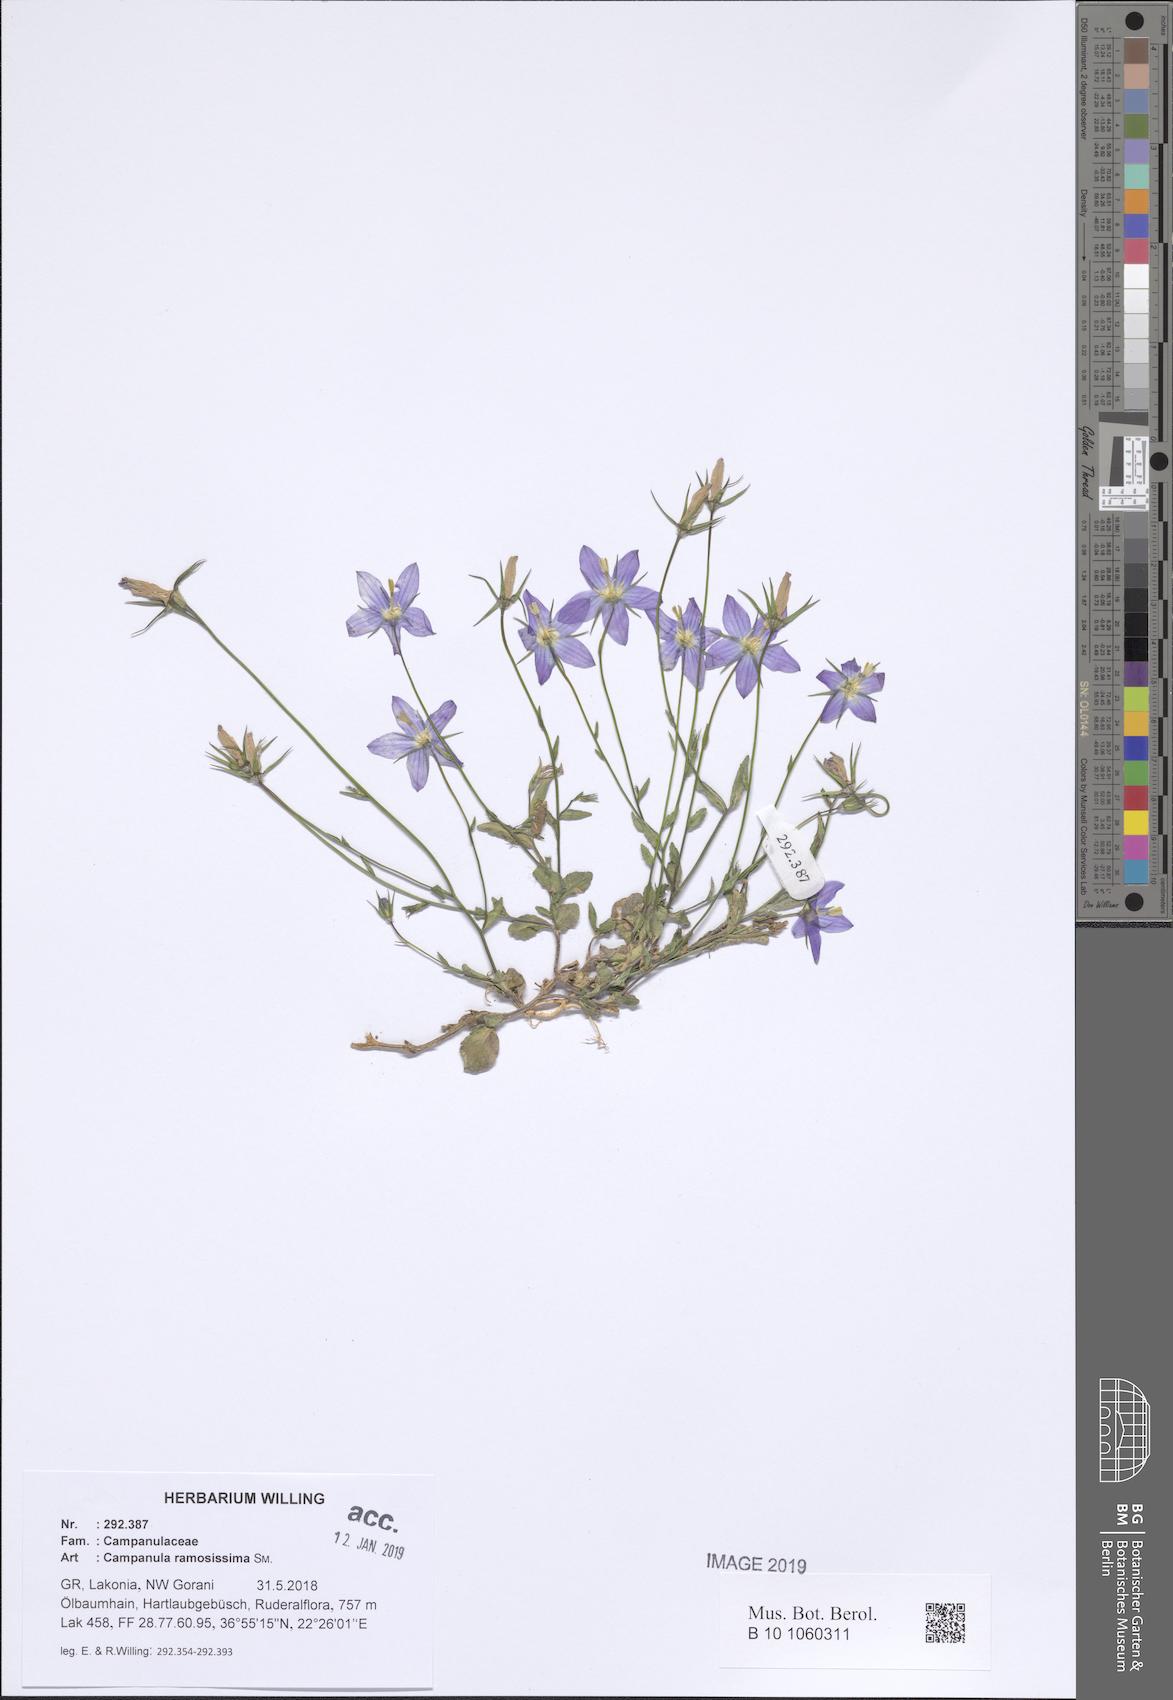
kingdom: Plantae
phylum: Tracheophyta
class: Magnoliopsida
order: Asterales
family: Campanulaceae
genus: Campanula
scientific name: Campanula ramosissima
